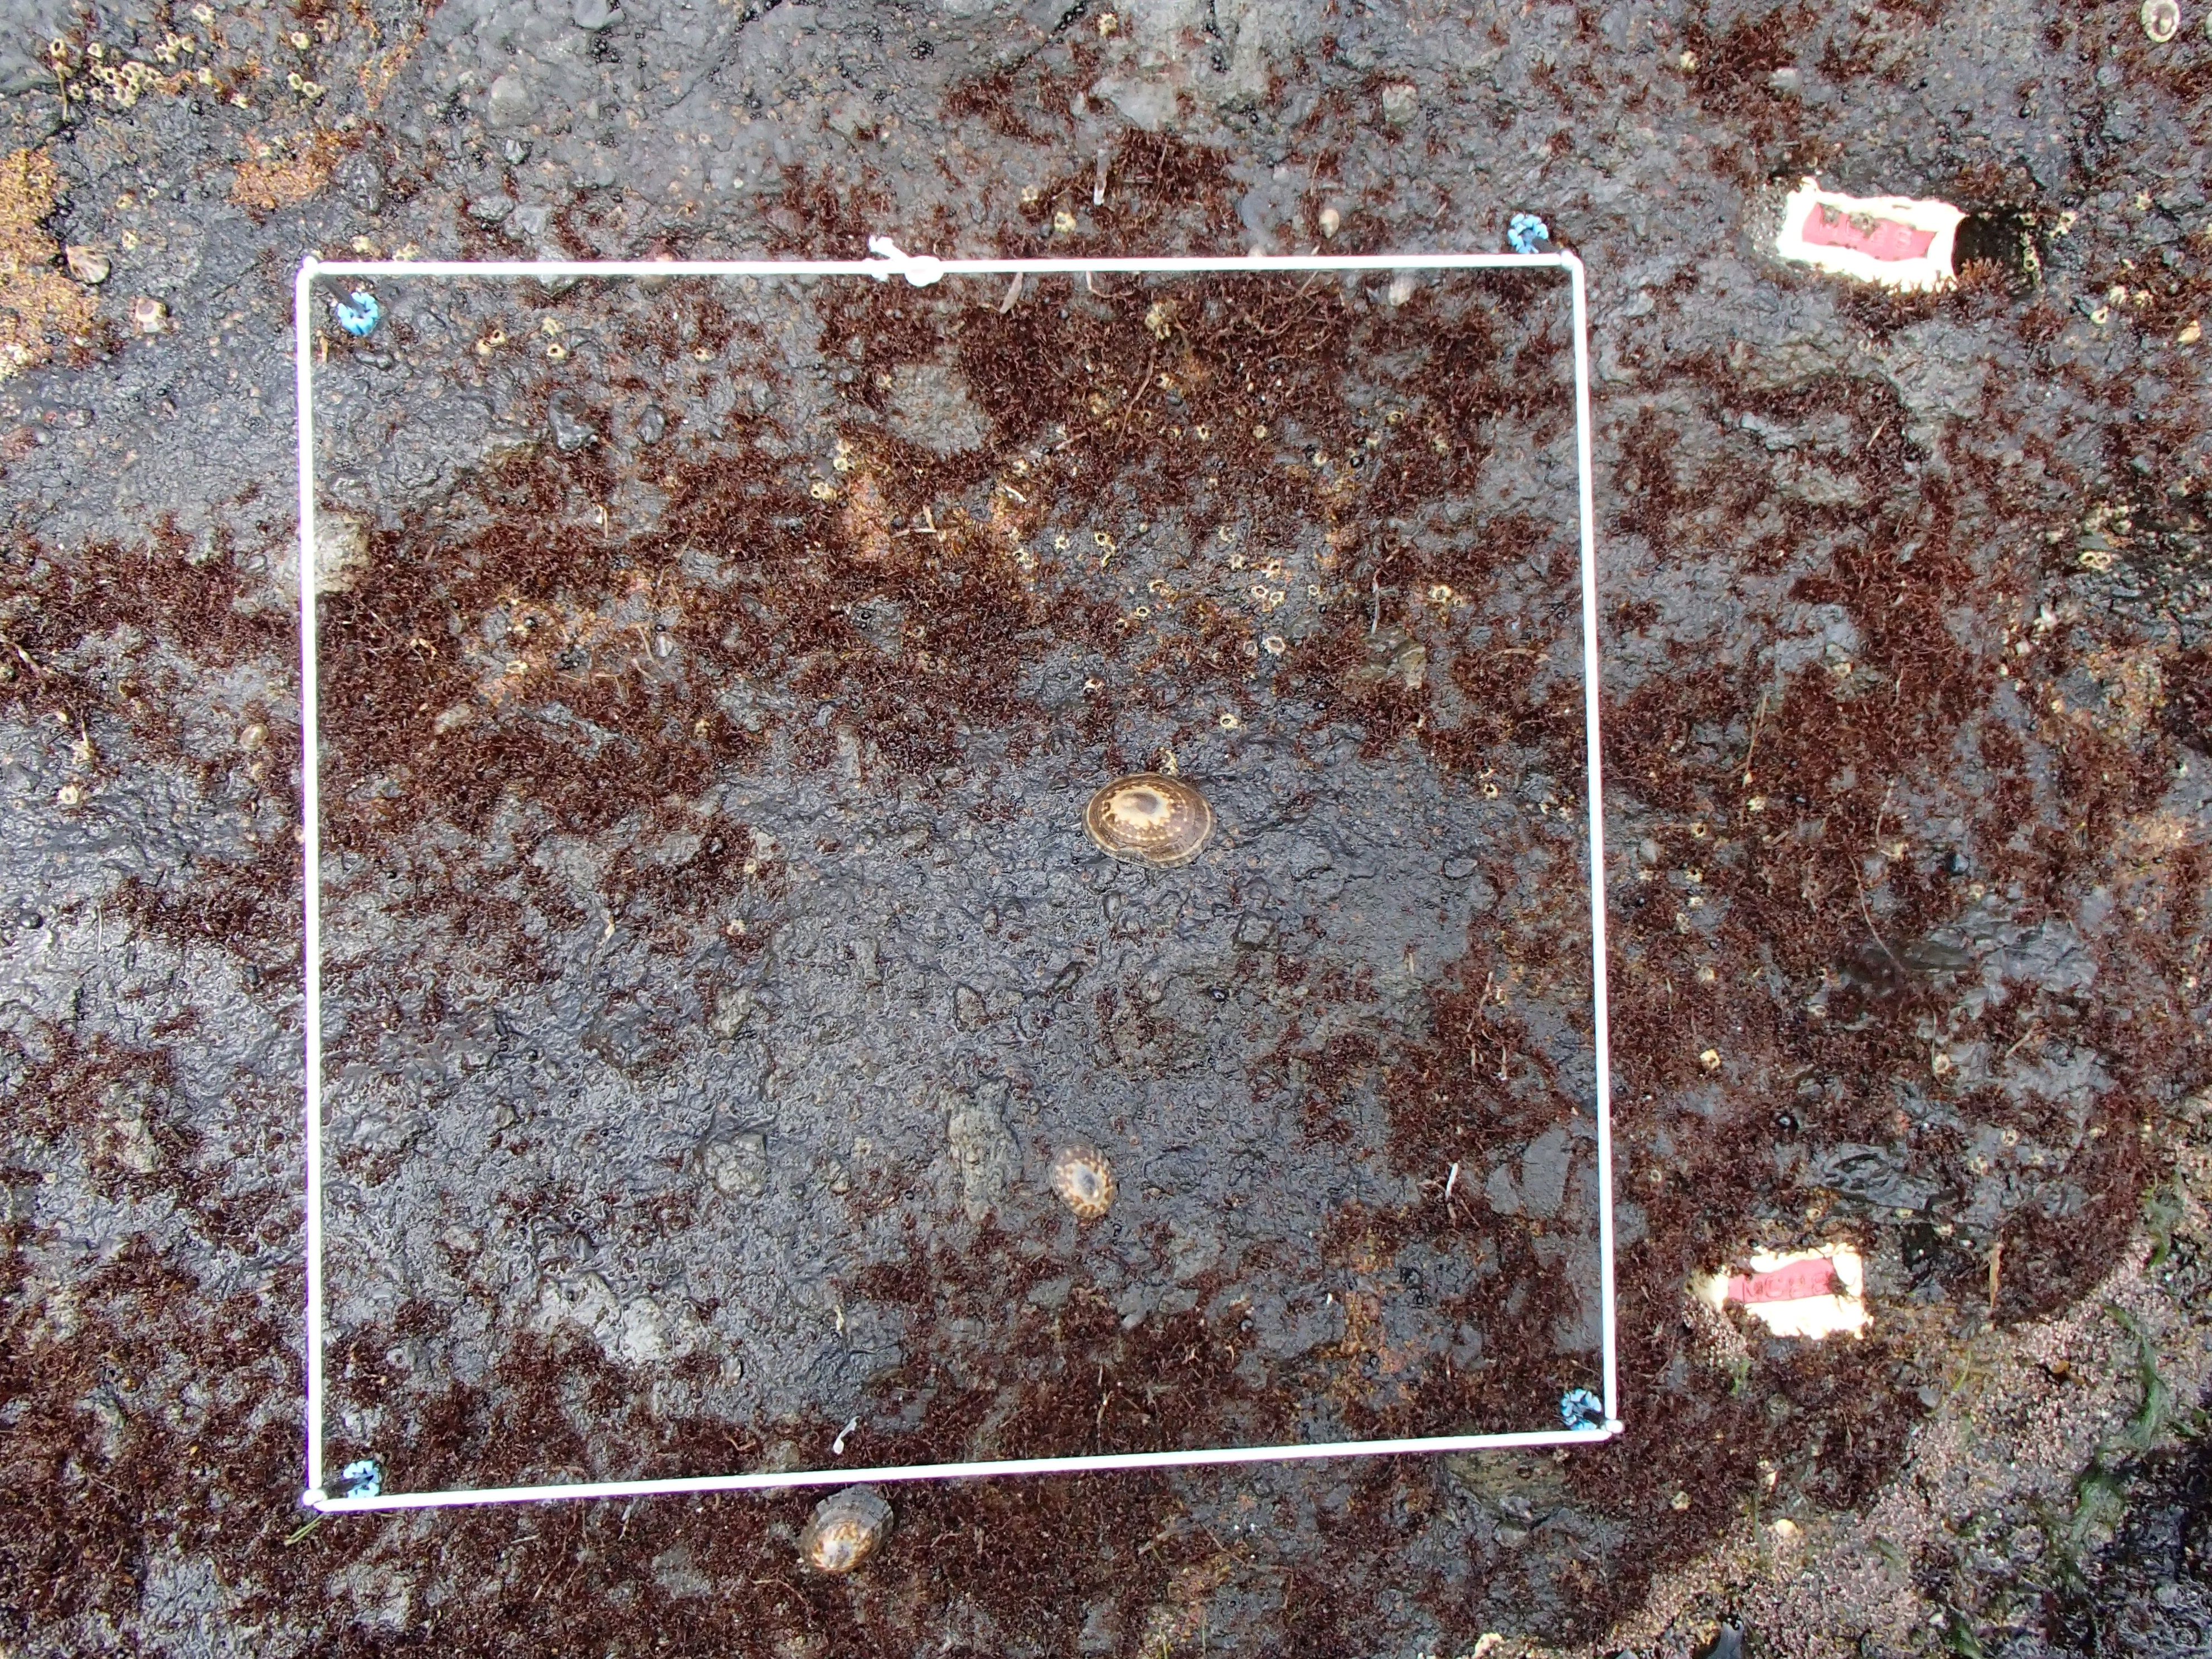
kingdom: Plantae
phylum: Rhodophyta
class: Florideophyceae
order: Gigartinales
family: Endocladiaceae
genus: Gloiopeltis
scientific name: Gloiopeltis furcata
